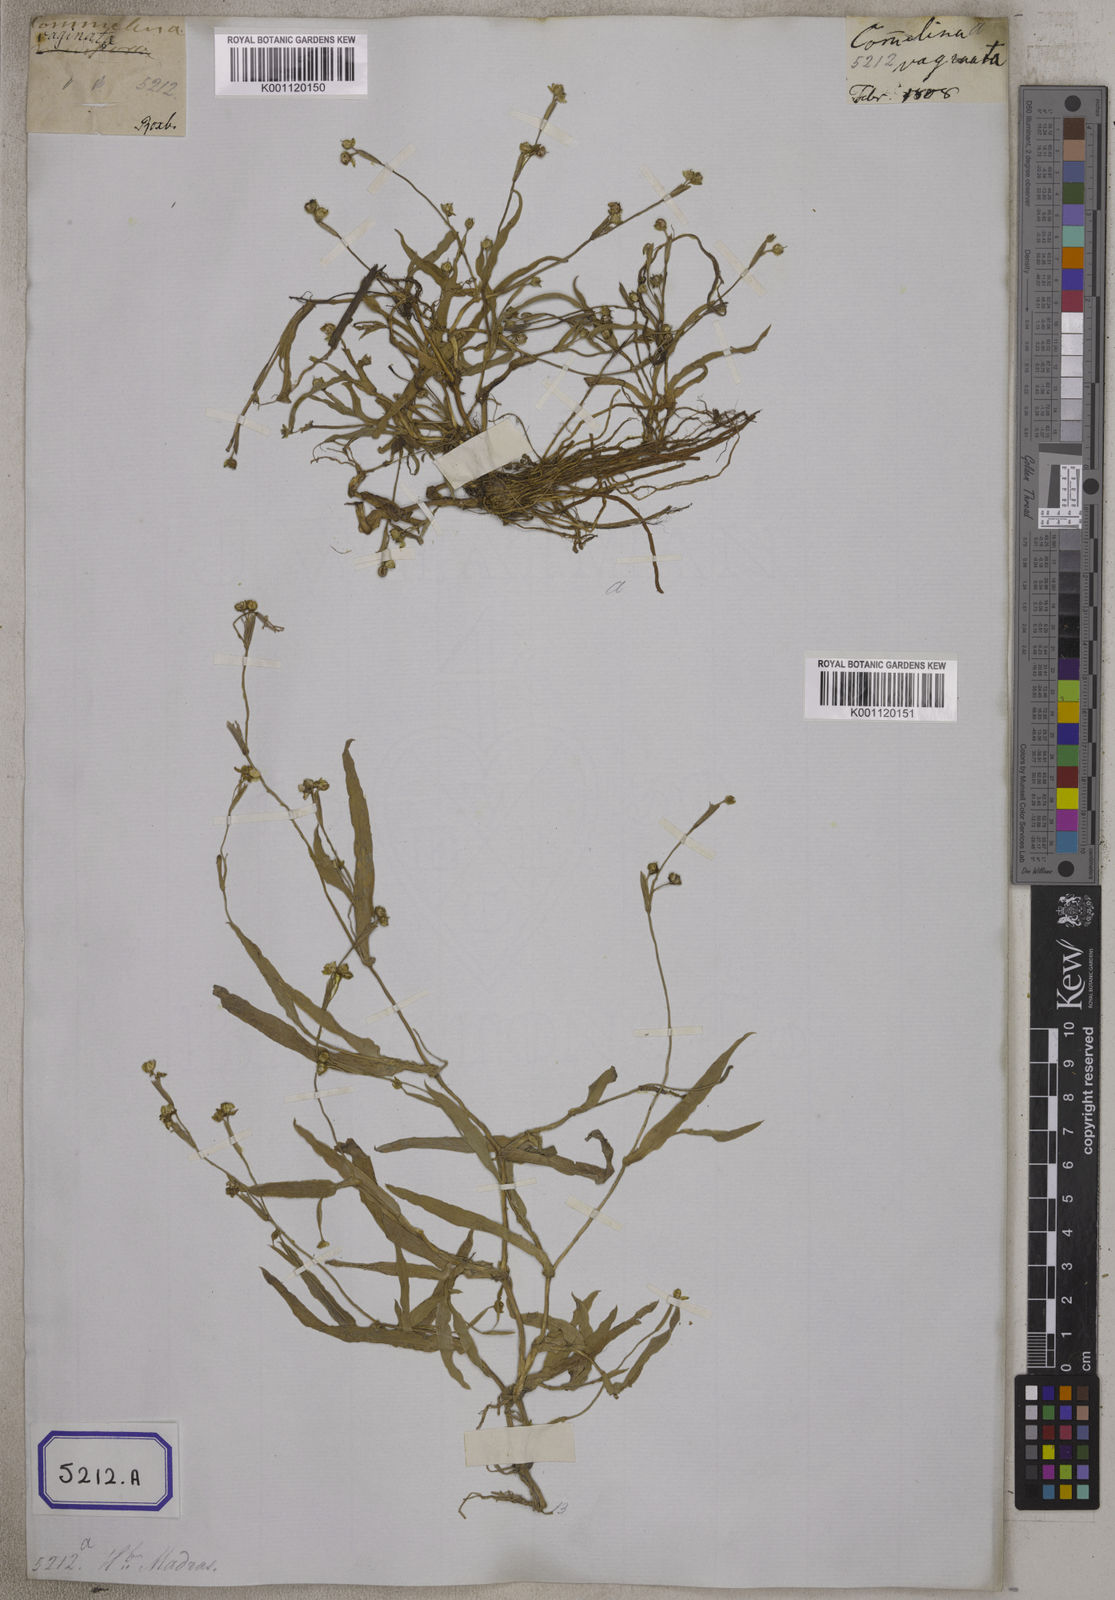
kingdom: Plantae
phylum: Tracheophyta
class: Liliopsida
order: Commelinales
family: Commelinaceae
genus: Murdannia
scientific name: Murdannia vaginata
